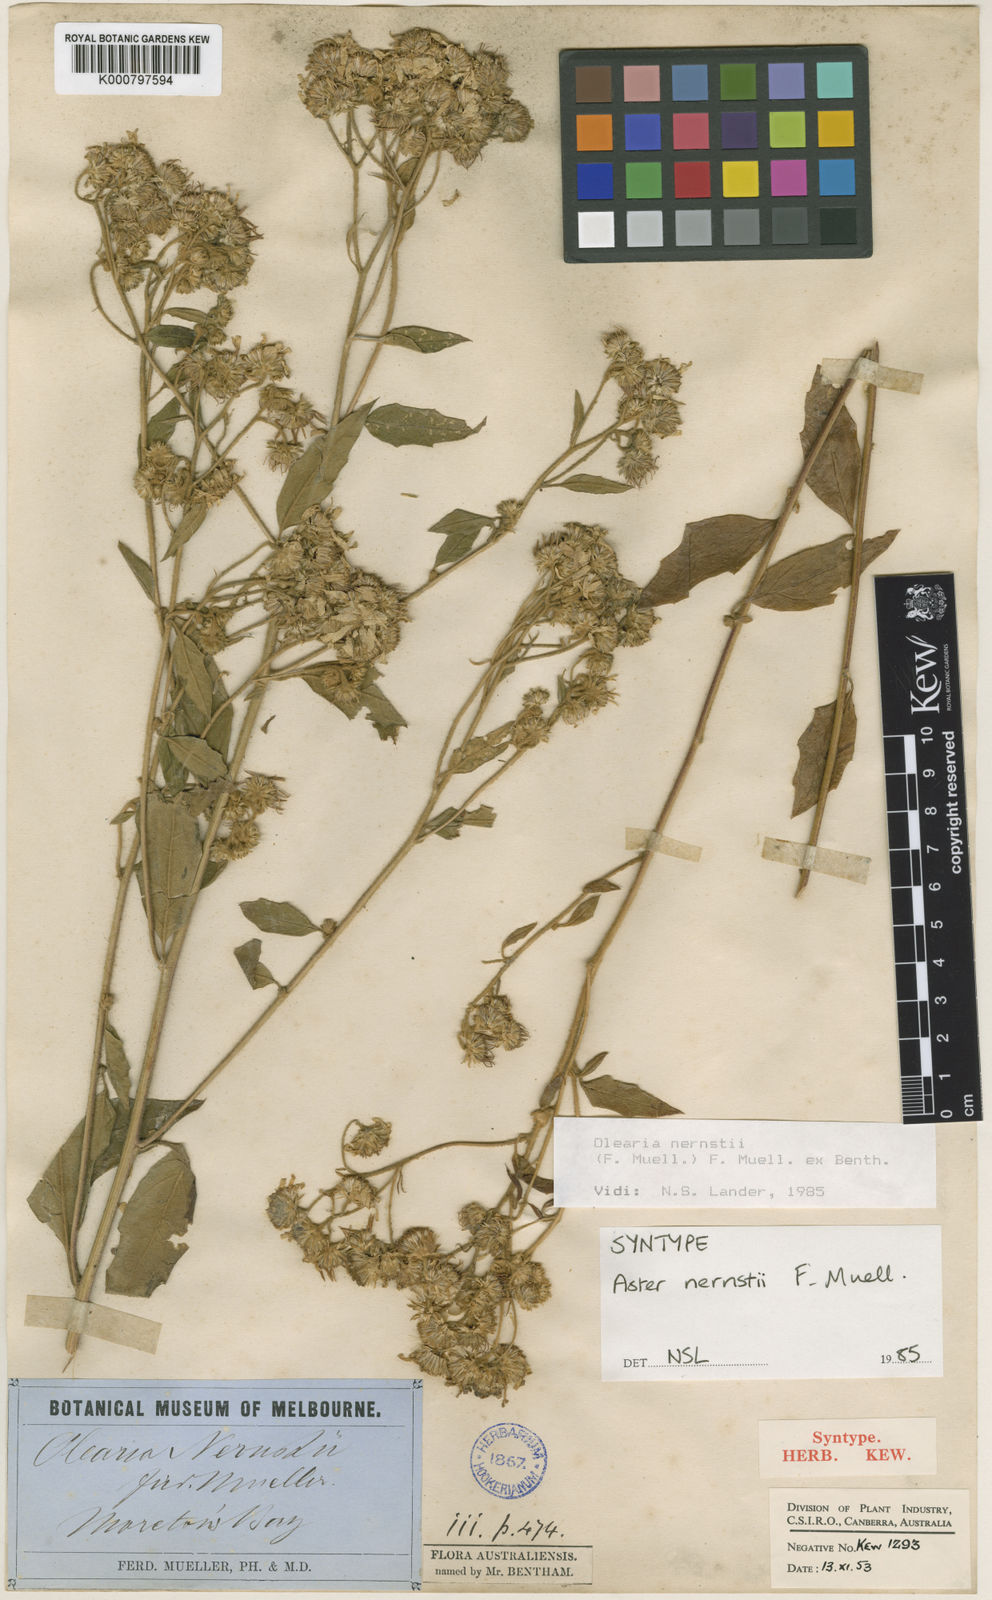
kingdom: Plantae
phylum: Tracheophyta
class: Magnoliopsida
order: Asterales
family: Asteraceae
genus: Olearia
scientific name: Olearia nernstii
